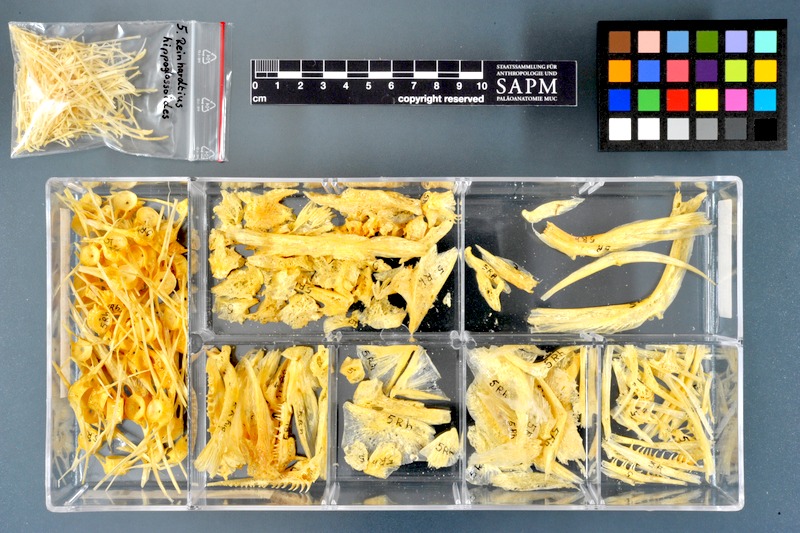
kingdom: Animalia
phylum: Chordata
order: Pleuronectiformes
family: Pleuronectidae
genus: Reinhardtius
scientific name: Reinhardtius hippoglossoides
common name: Greenland halibut
